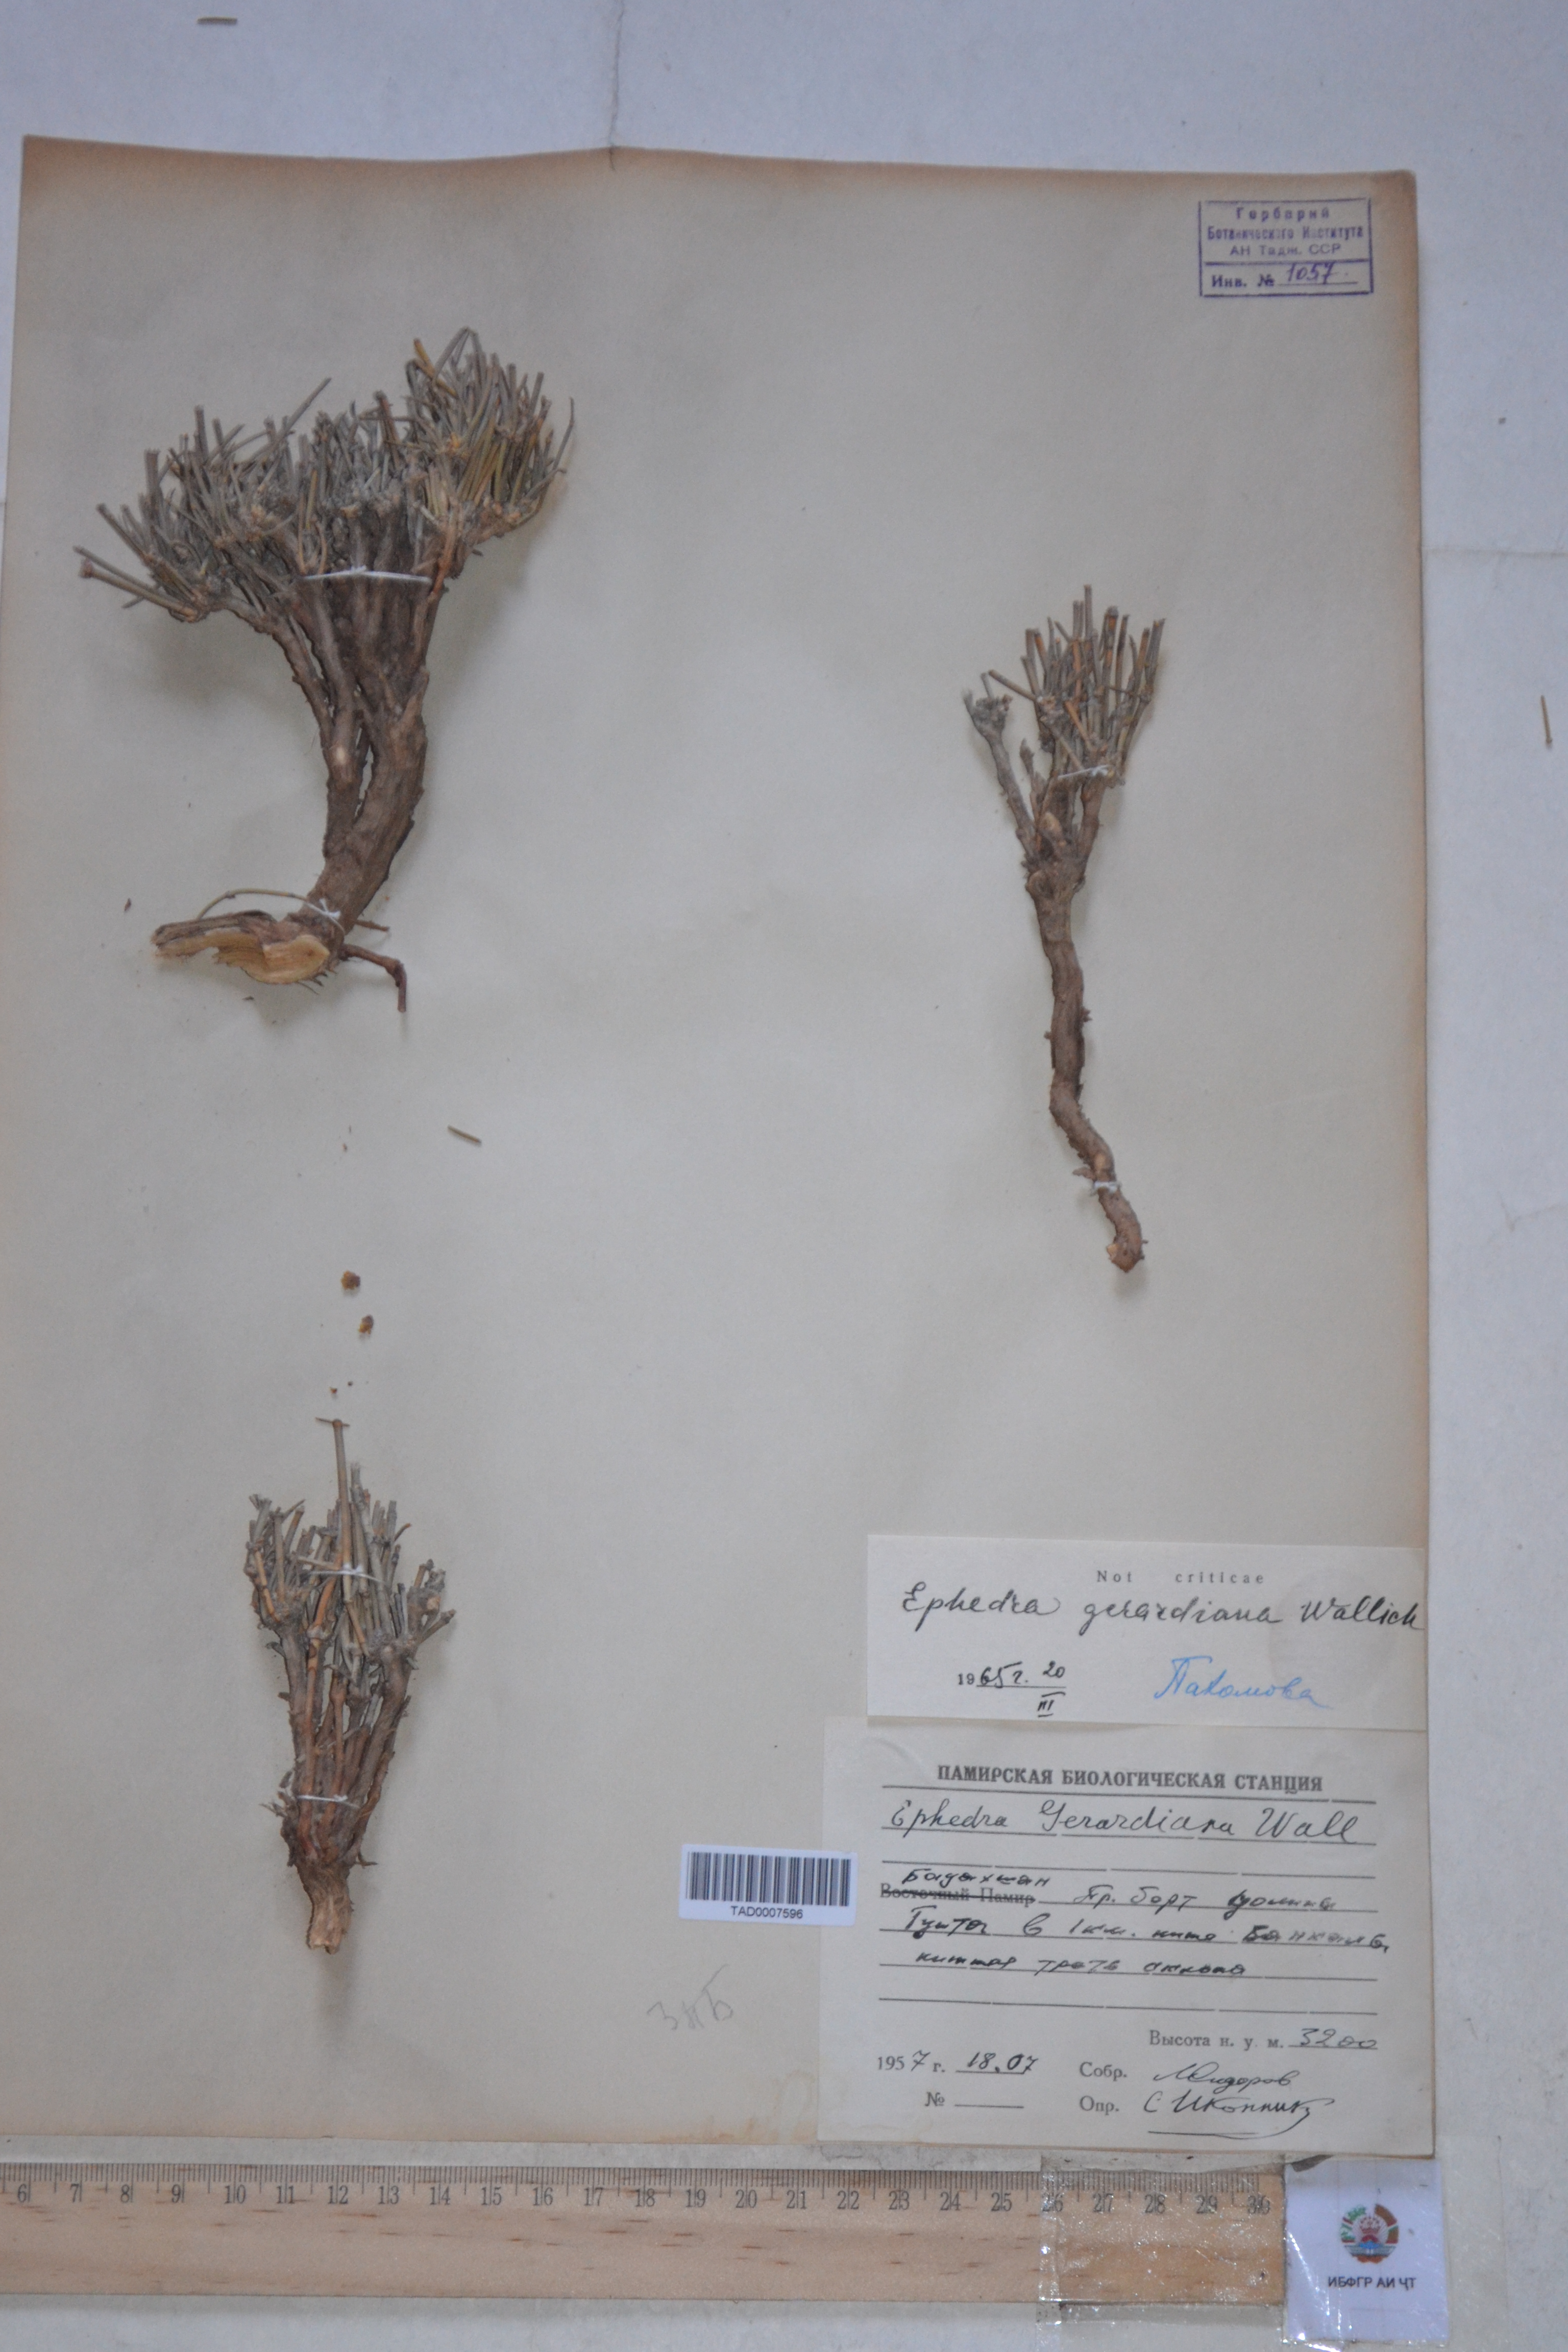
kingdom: Plantae
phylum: Tracheophyta
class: Gnetopsida
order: Ephedrales
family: Ephedraceae
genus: Ephedra
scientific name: Ephedra gerardiana
